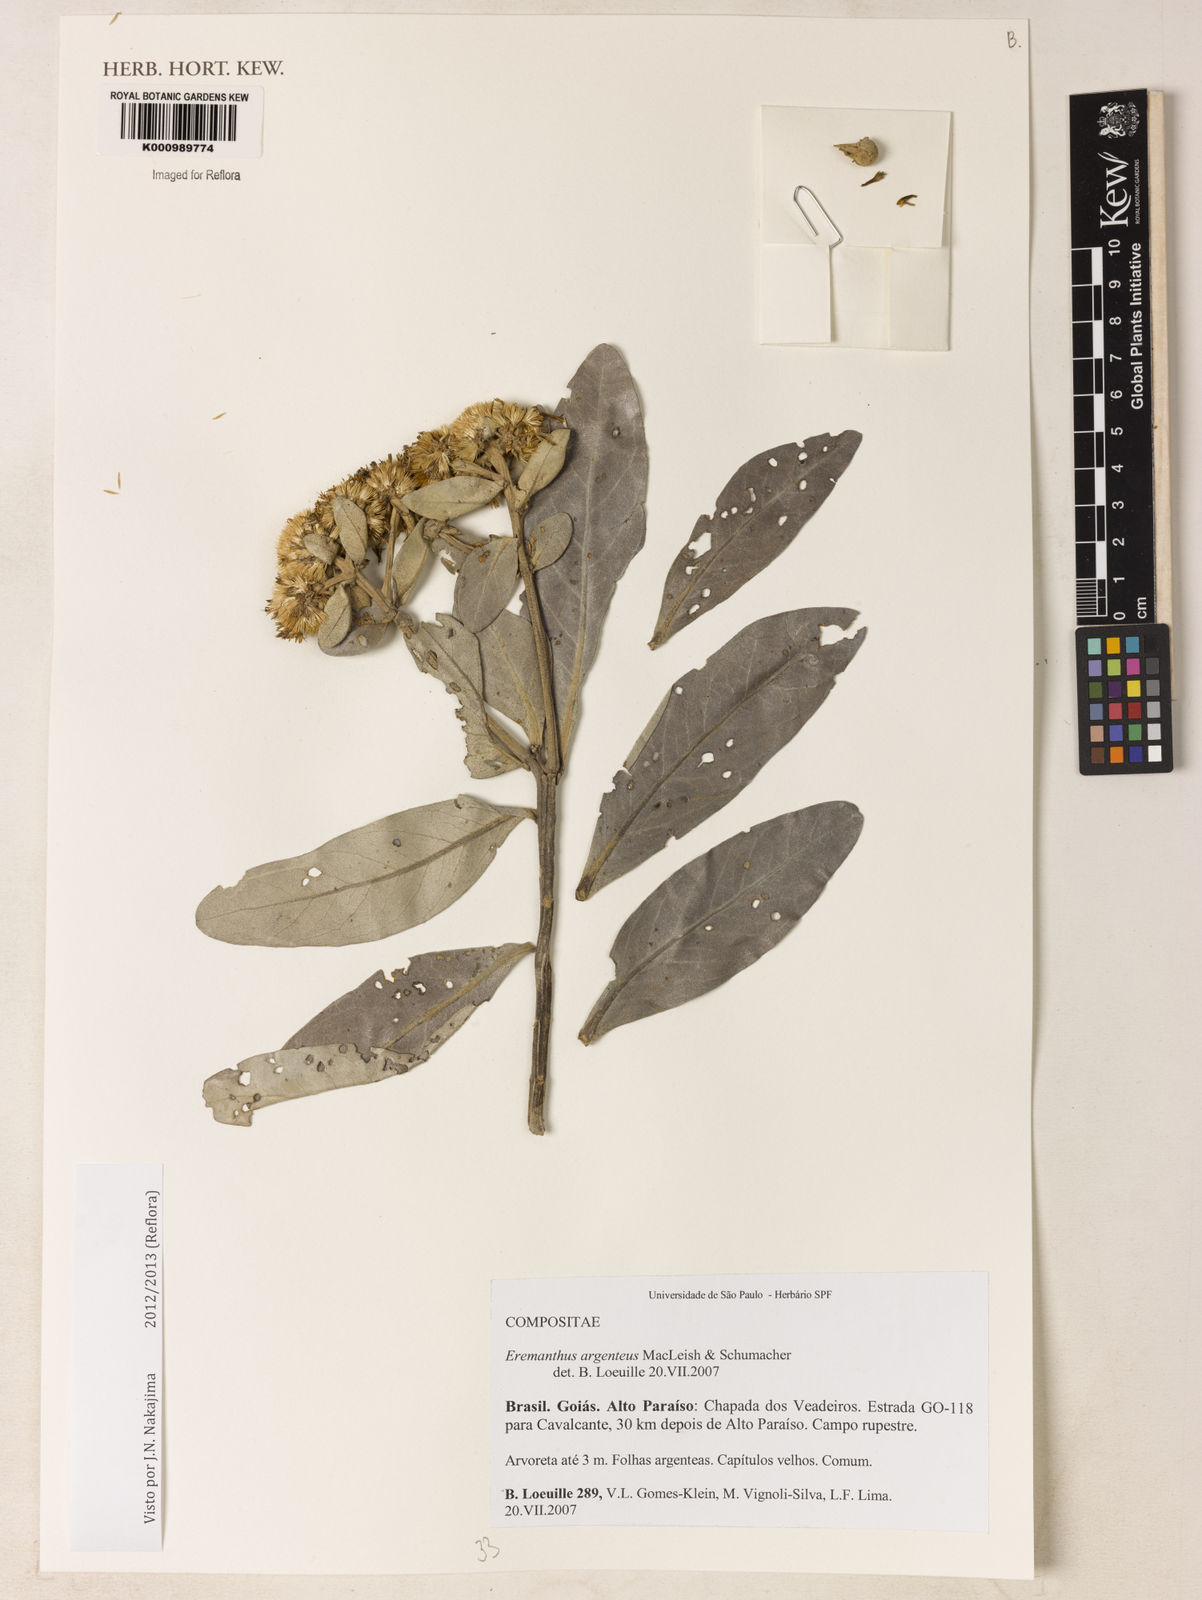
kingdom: Plantae
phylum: Tracheophyta
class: Magnoliopsida
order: Asterales
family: Asteraceae
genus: Eremanthus
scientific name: Eremanthus argenteus
